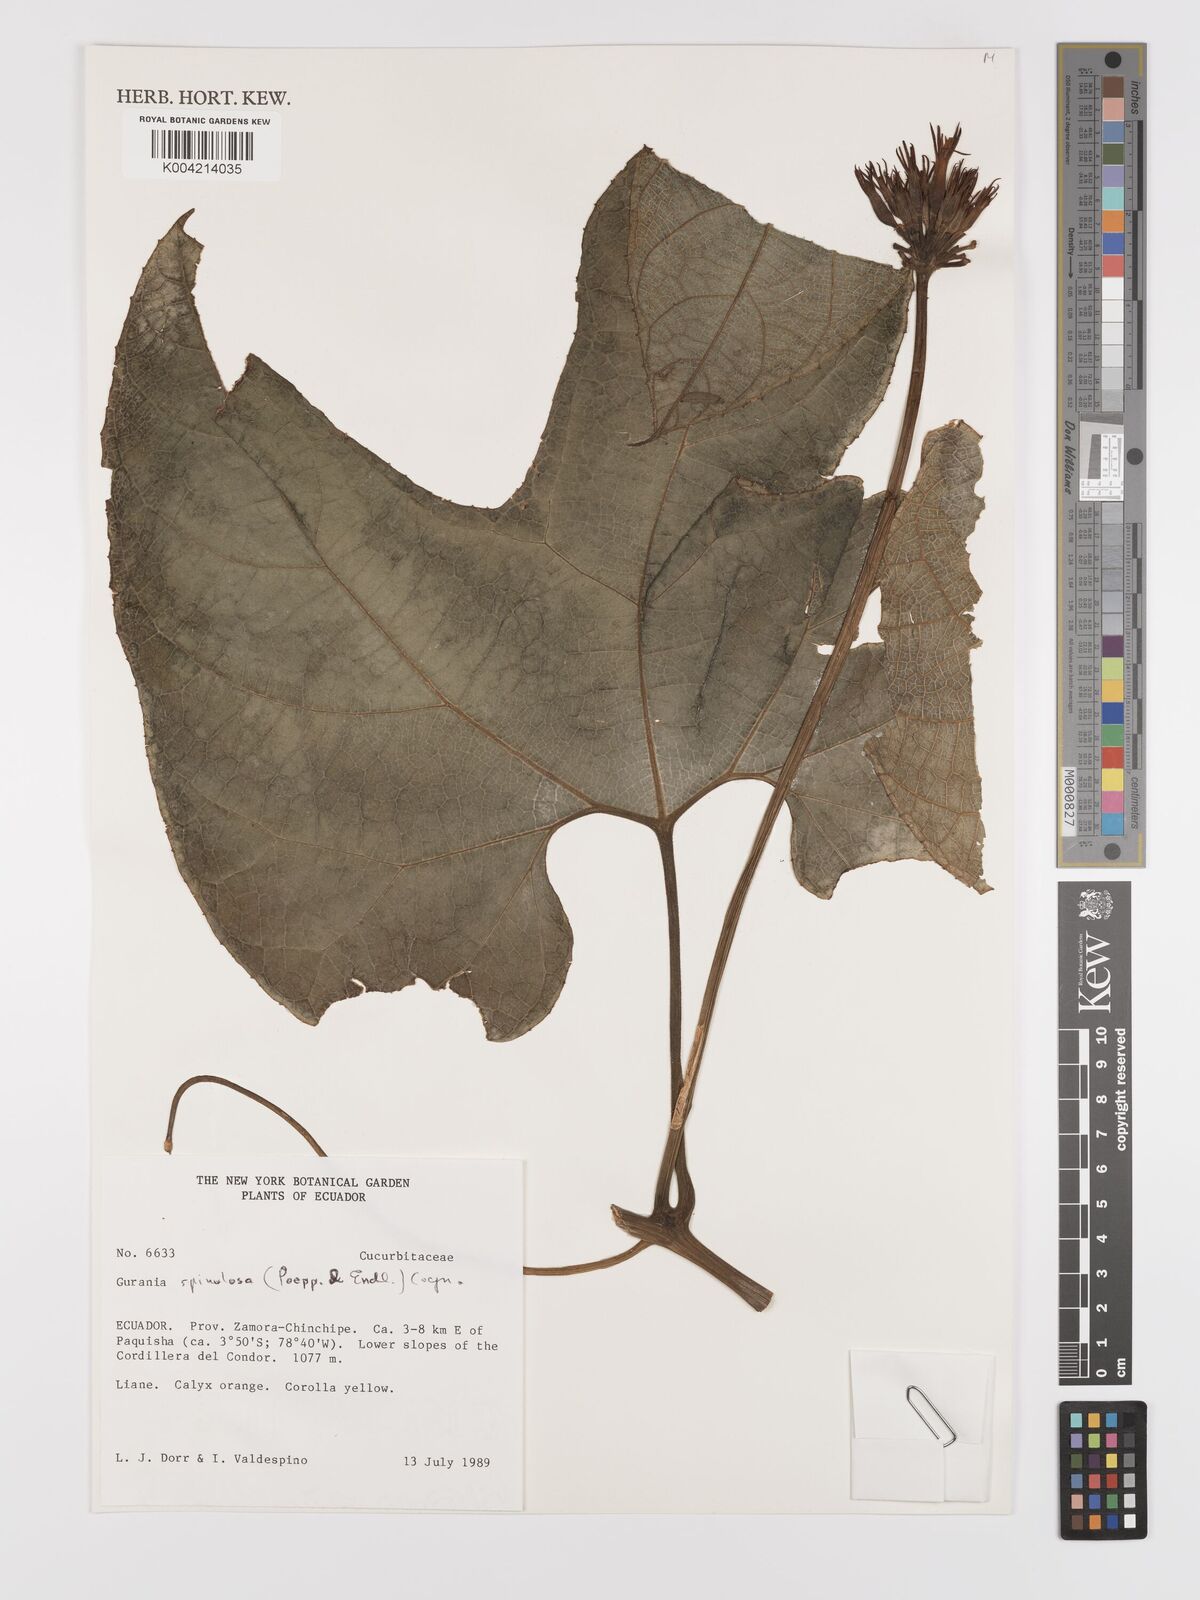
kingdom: Plantae
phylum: Tracheophyta
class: Magnoliopsida
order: Cucurbitales
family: Cucurbitaceae
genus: Gurania
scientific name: Gurania lobata
